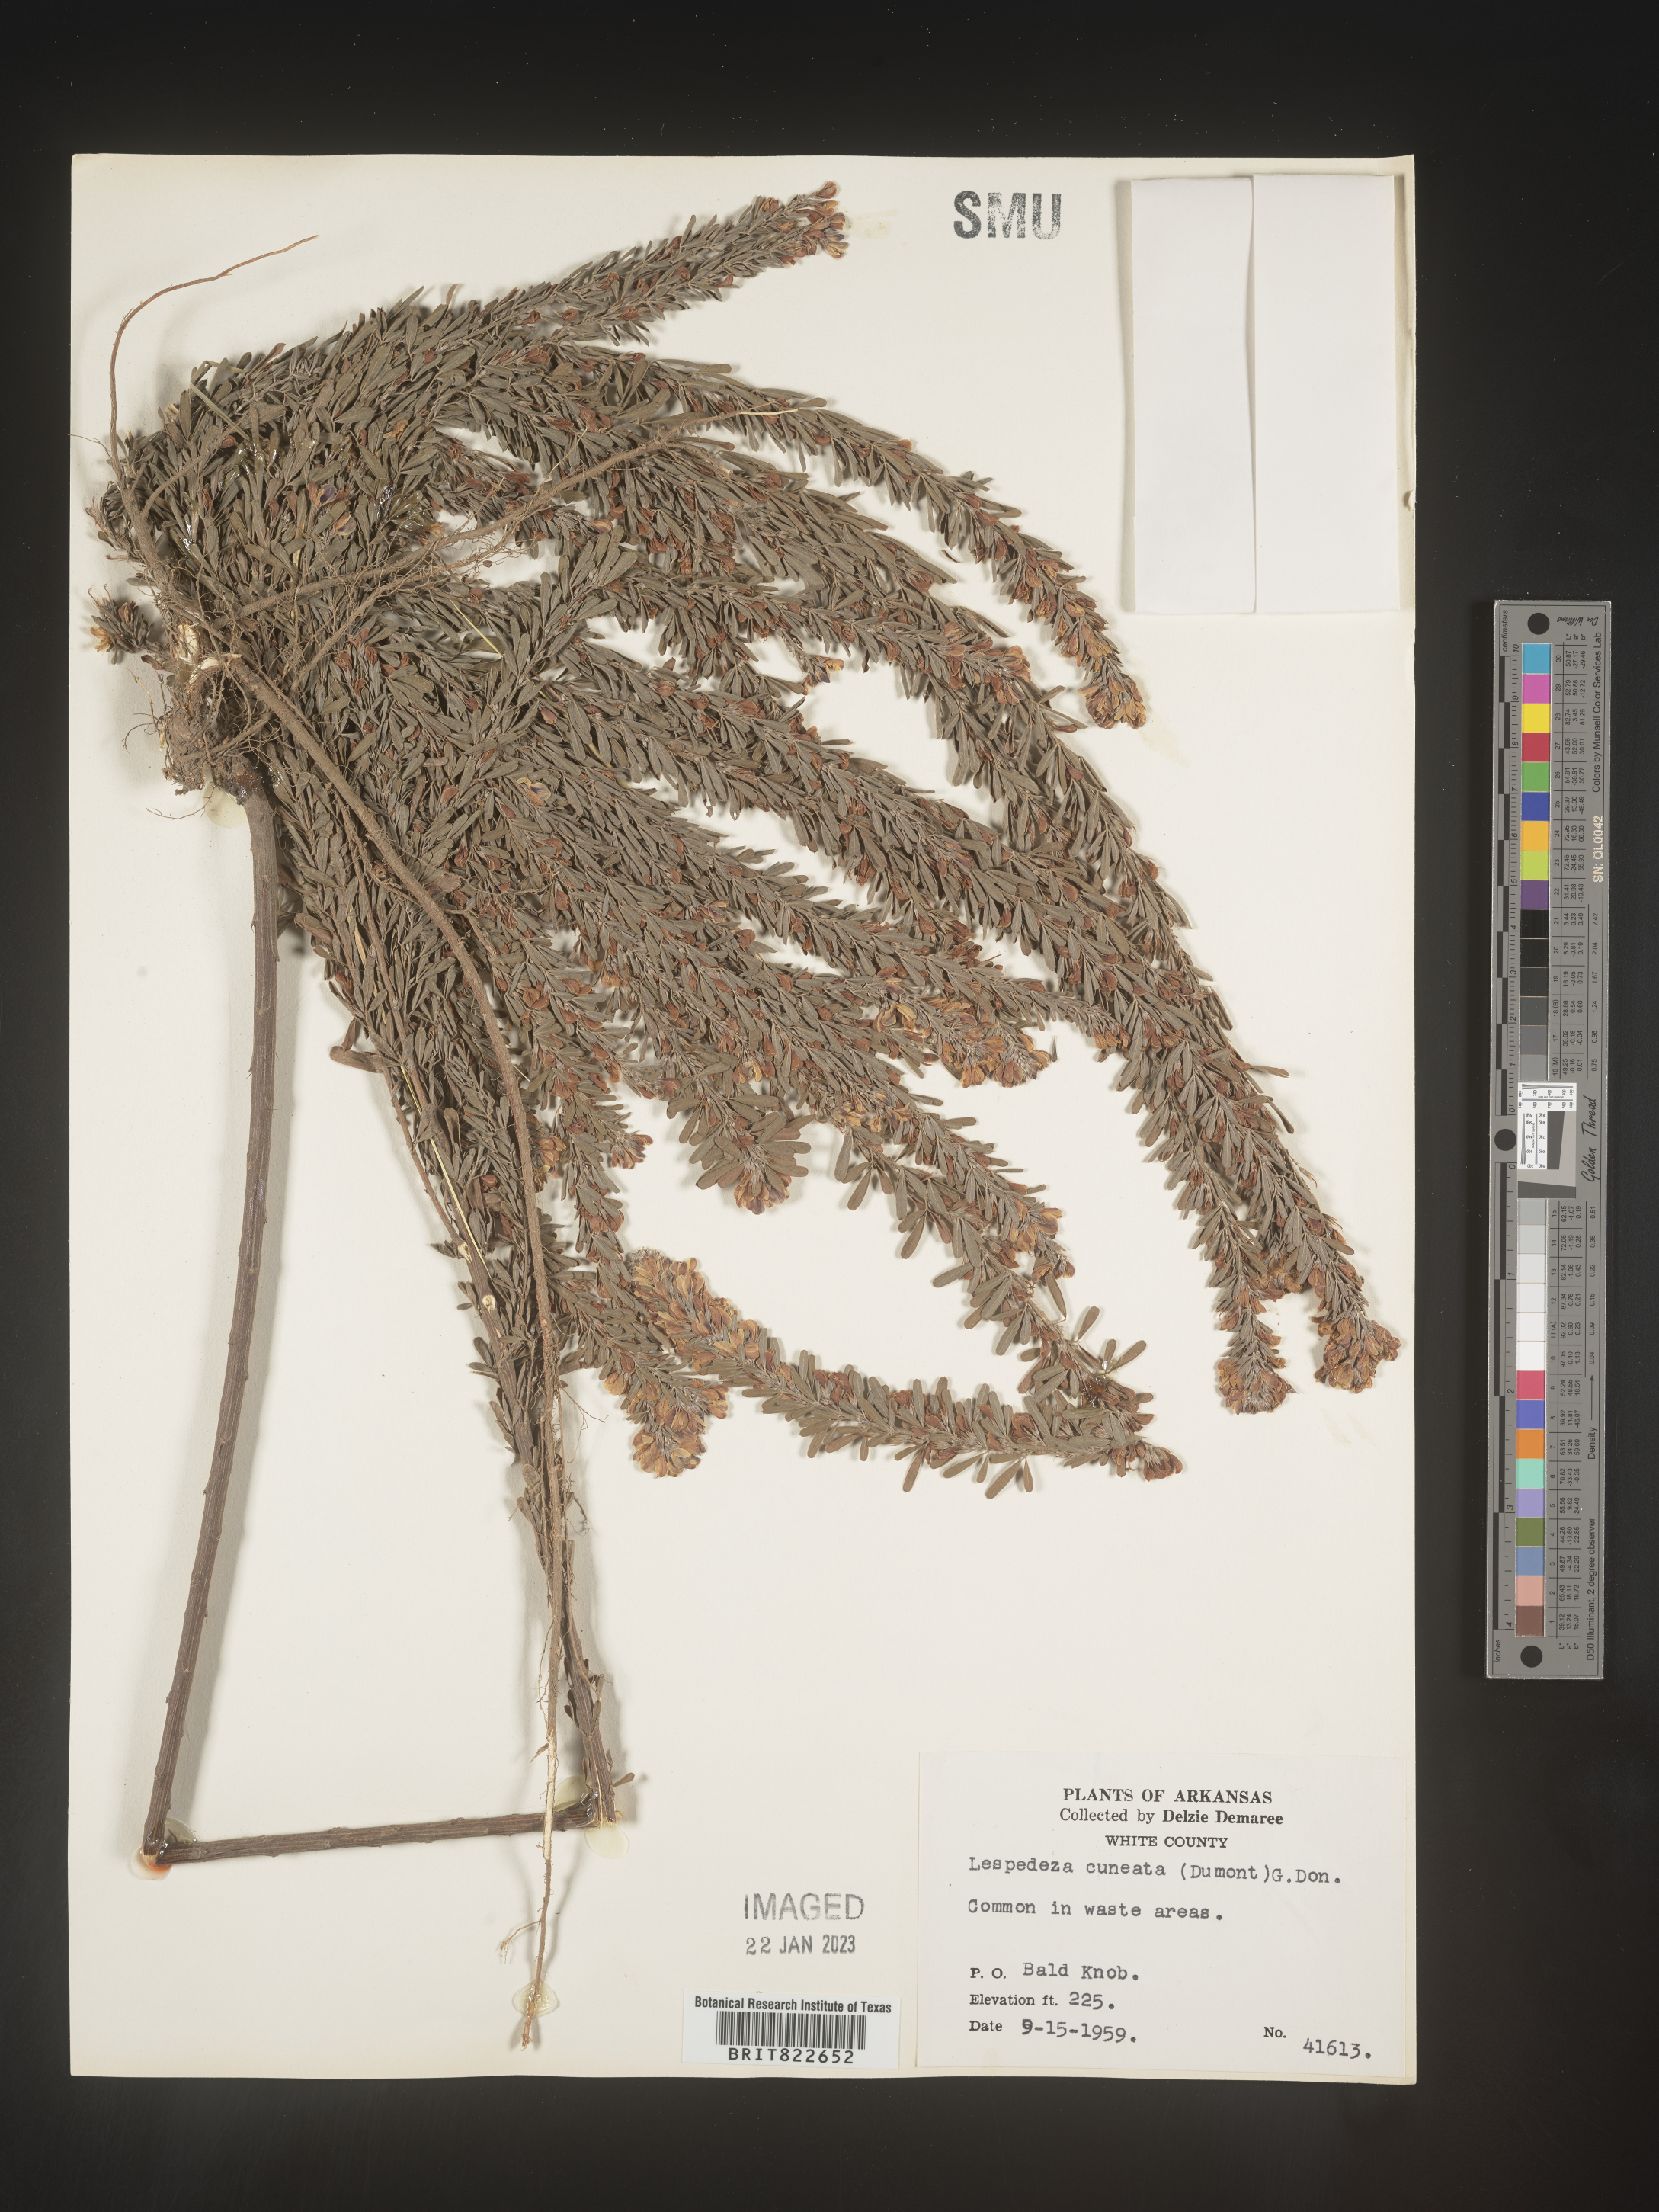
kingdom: Plantae
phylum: Tracheophyta
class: Magnoliopsida
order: Fabales
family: Fabaceae
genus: Lespedeza
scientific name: Lespedeza cuneata
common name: Chinese bush-clover
